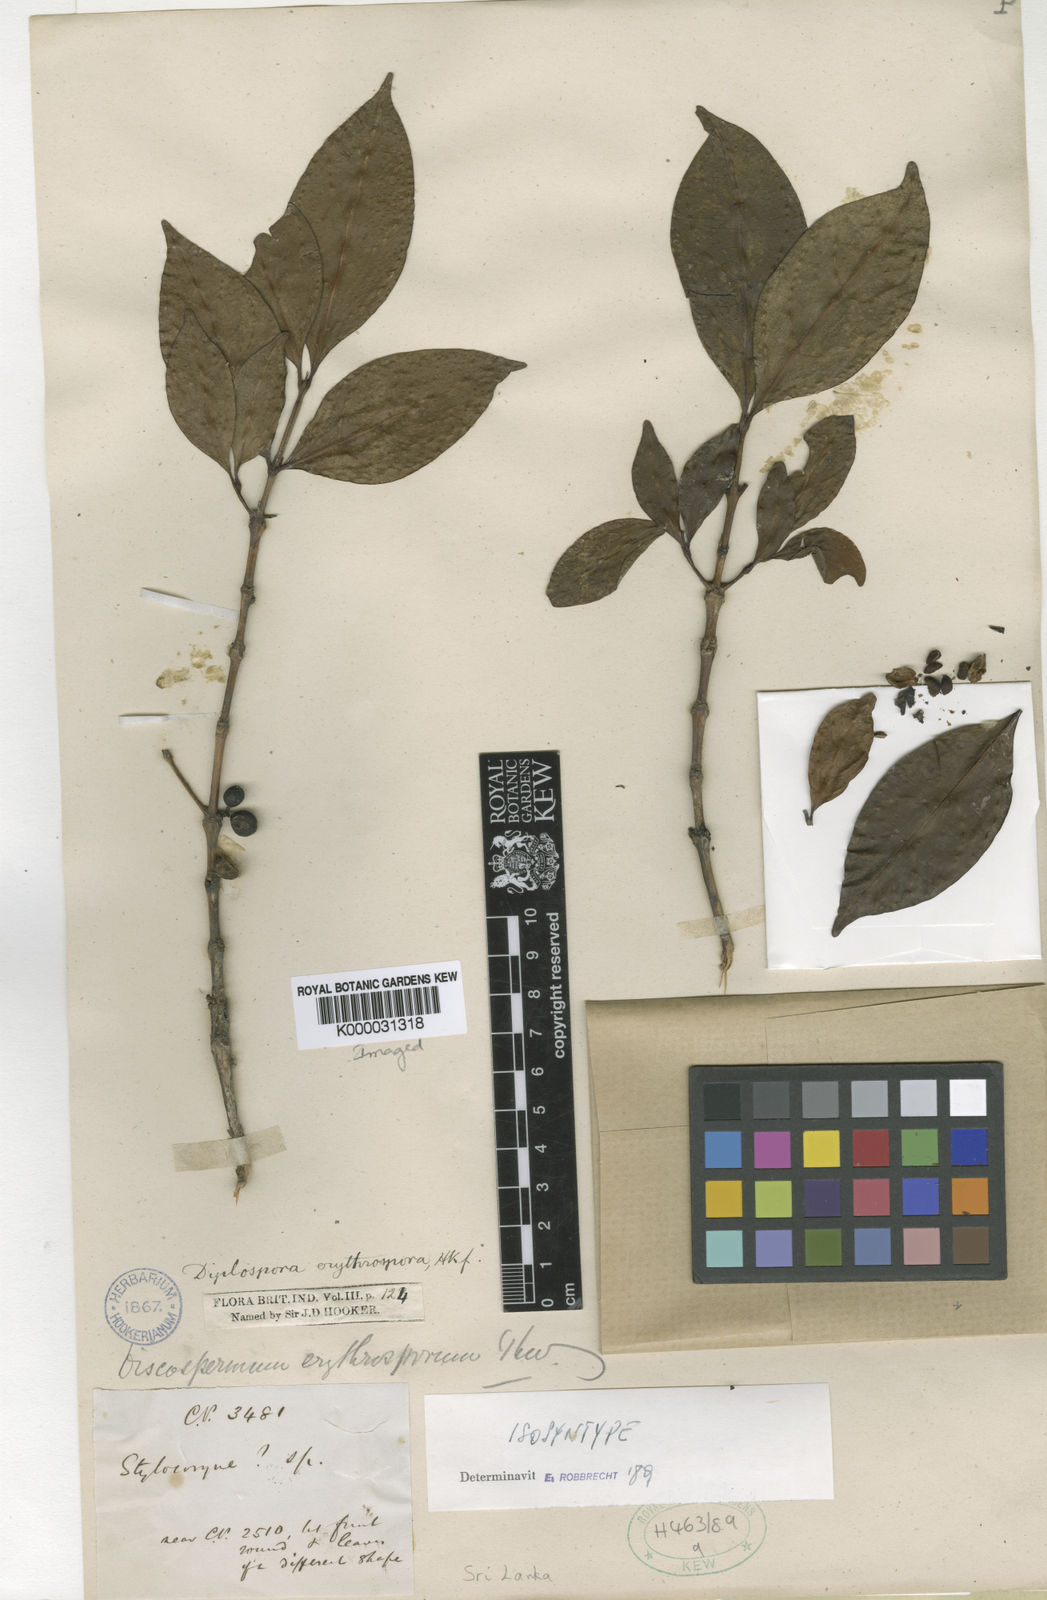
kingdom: Plantae
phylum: Tracheophyta
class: Magnoliopsida
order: Gentianales
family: Rubiaceae
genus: Diplospora
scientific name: Diplospora
